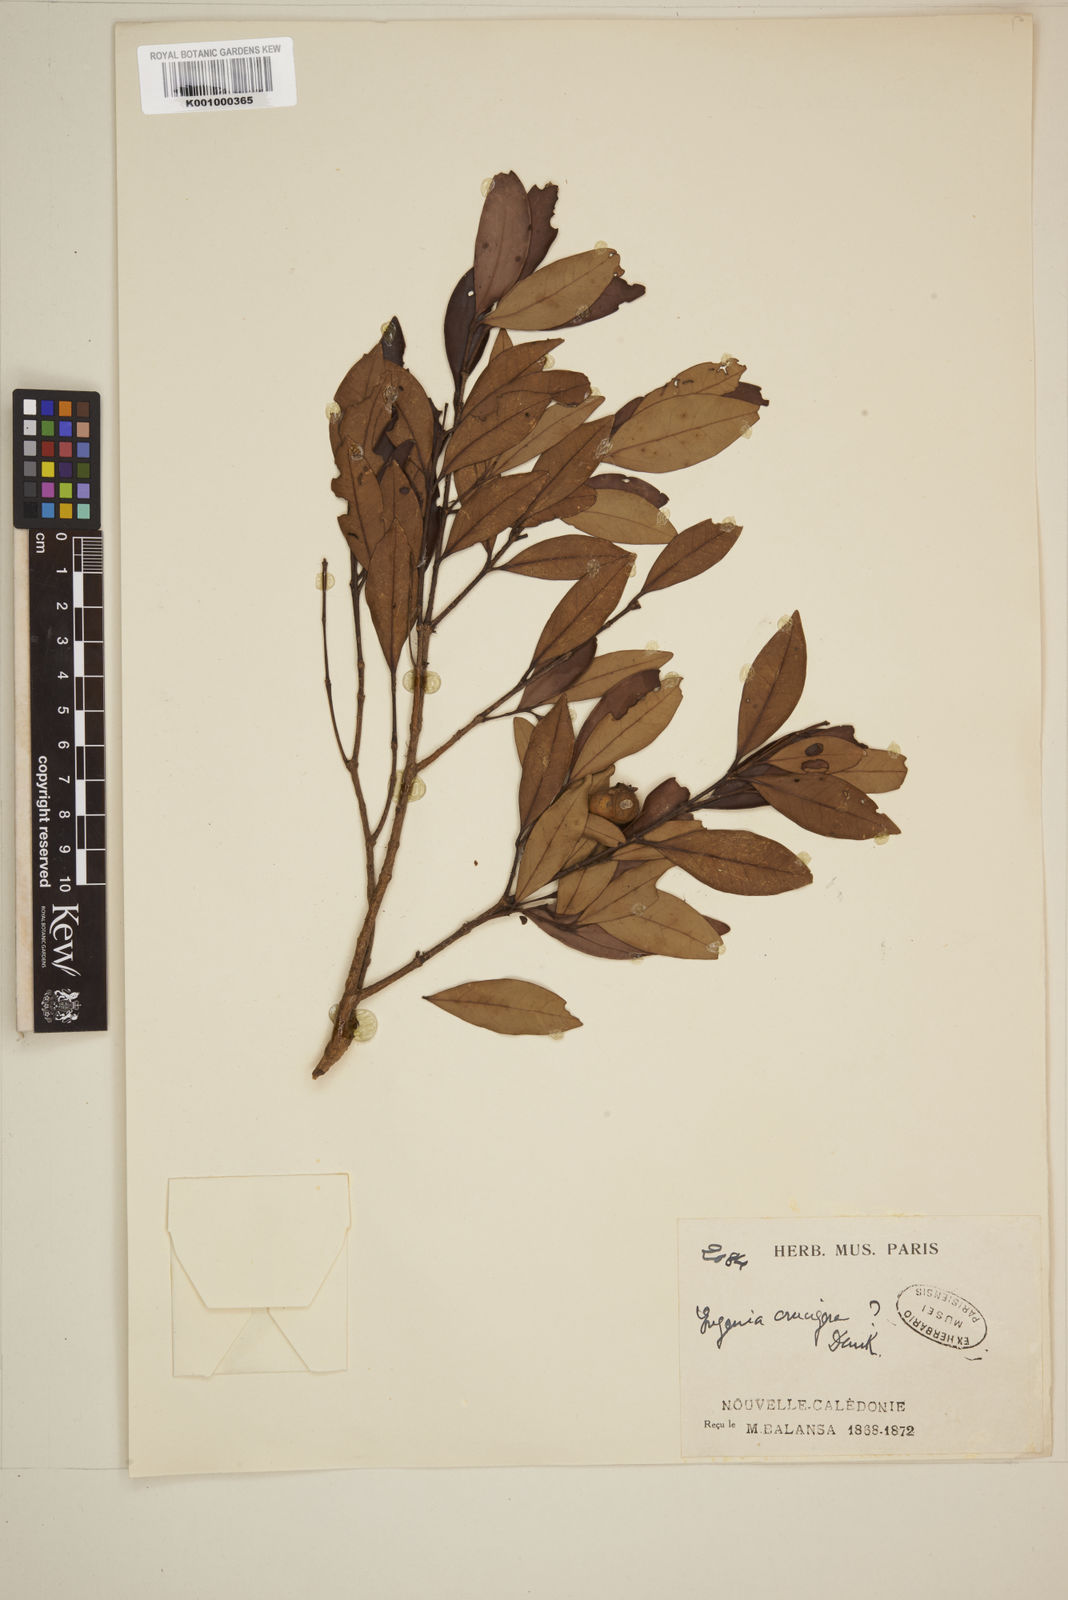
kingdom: Plantae
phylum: Tracheophyta
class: Magnoliopsida
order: Myrtales
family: Myrtaceae
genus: Eugenia
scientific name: Eugenia
